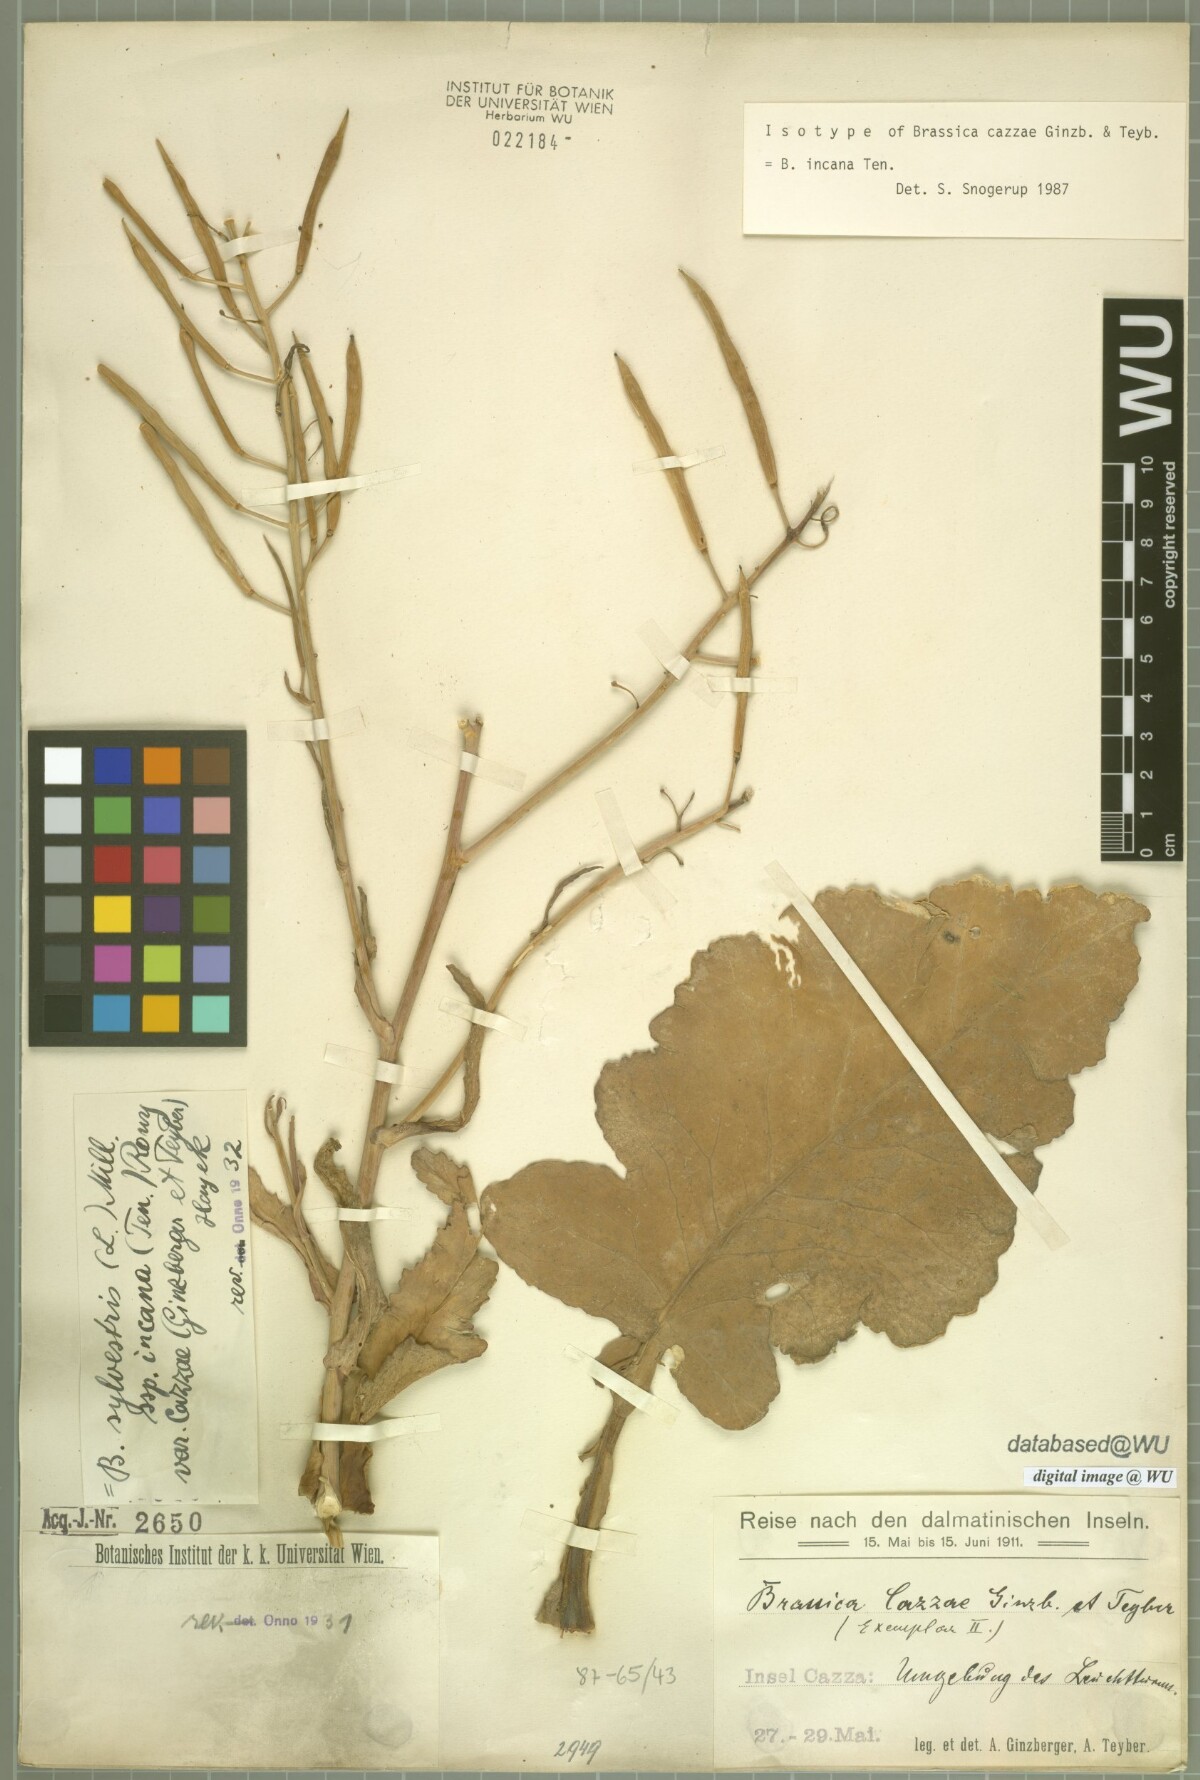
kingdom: Plantae
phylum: Tracheophyta
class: Magnoliopsida
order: Brassicales
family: Brassicaceae
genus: Brassica
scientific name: Brassica incana
